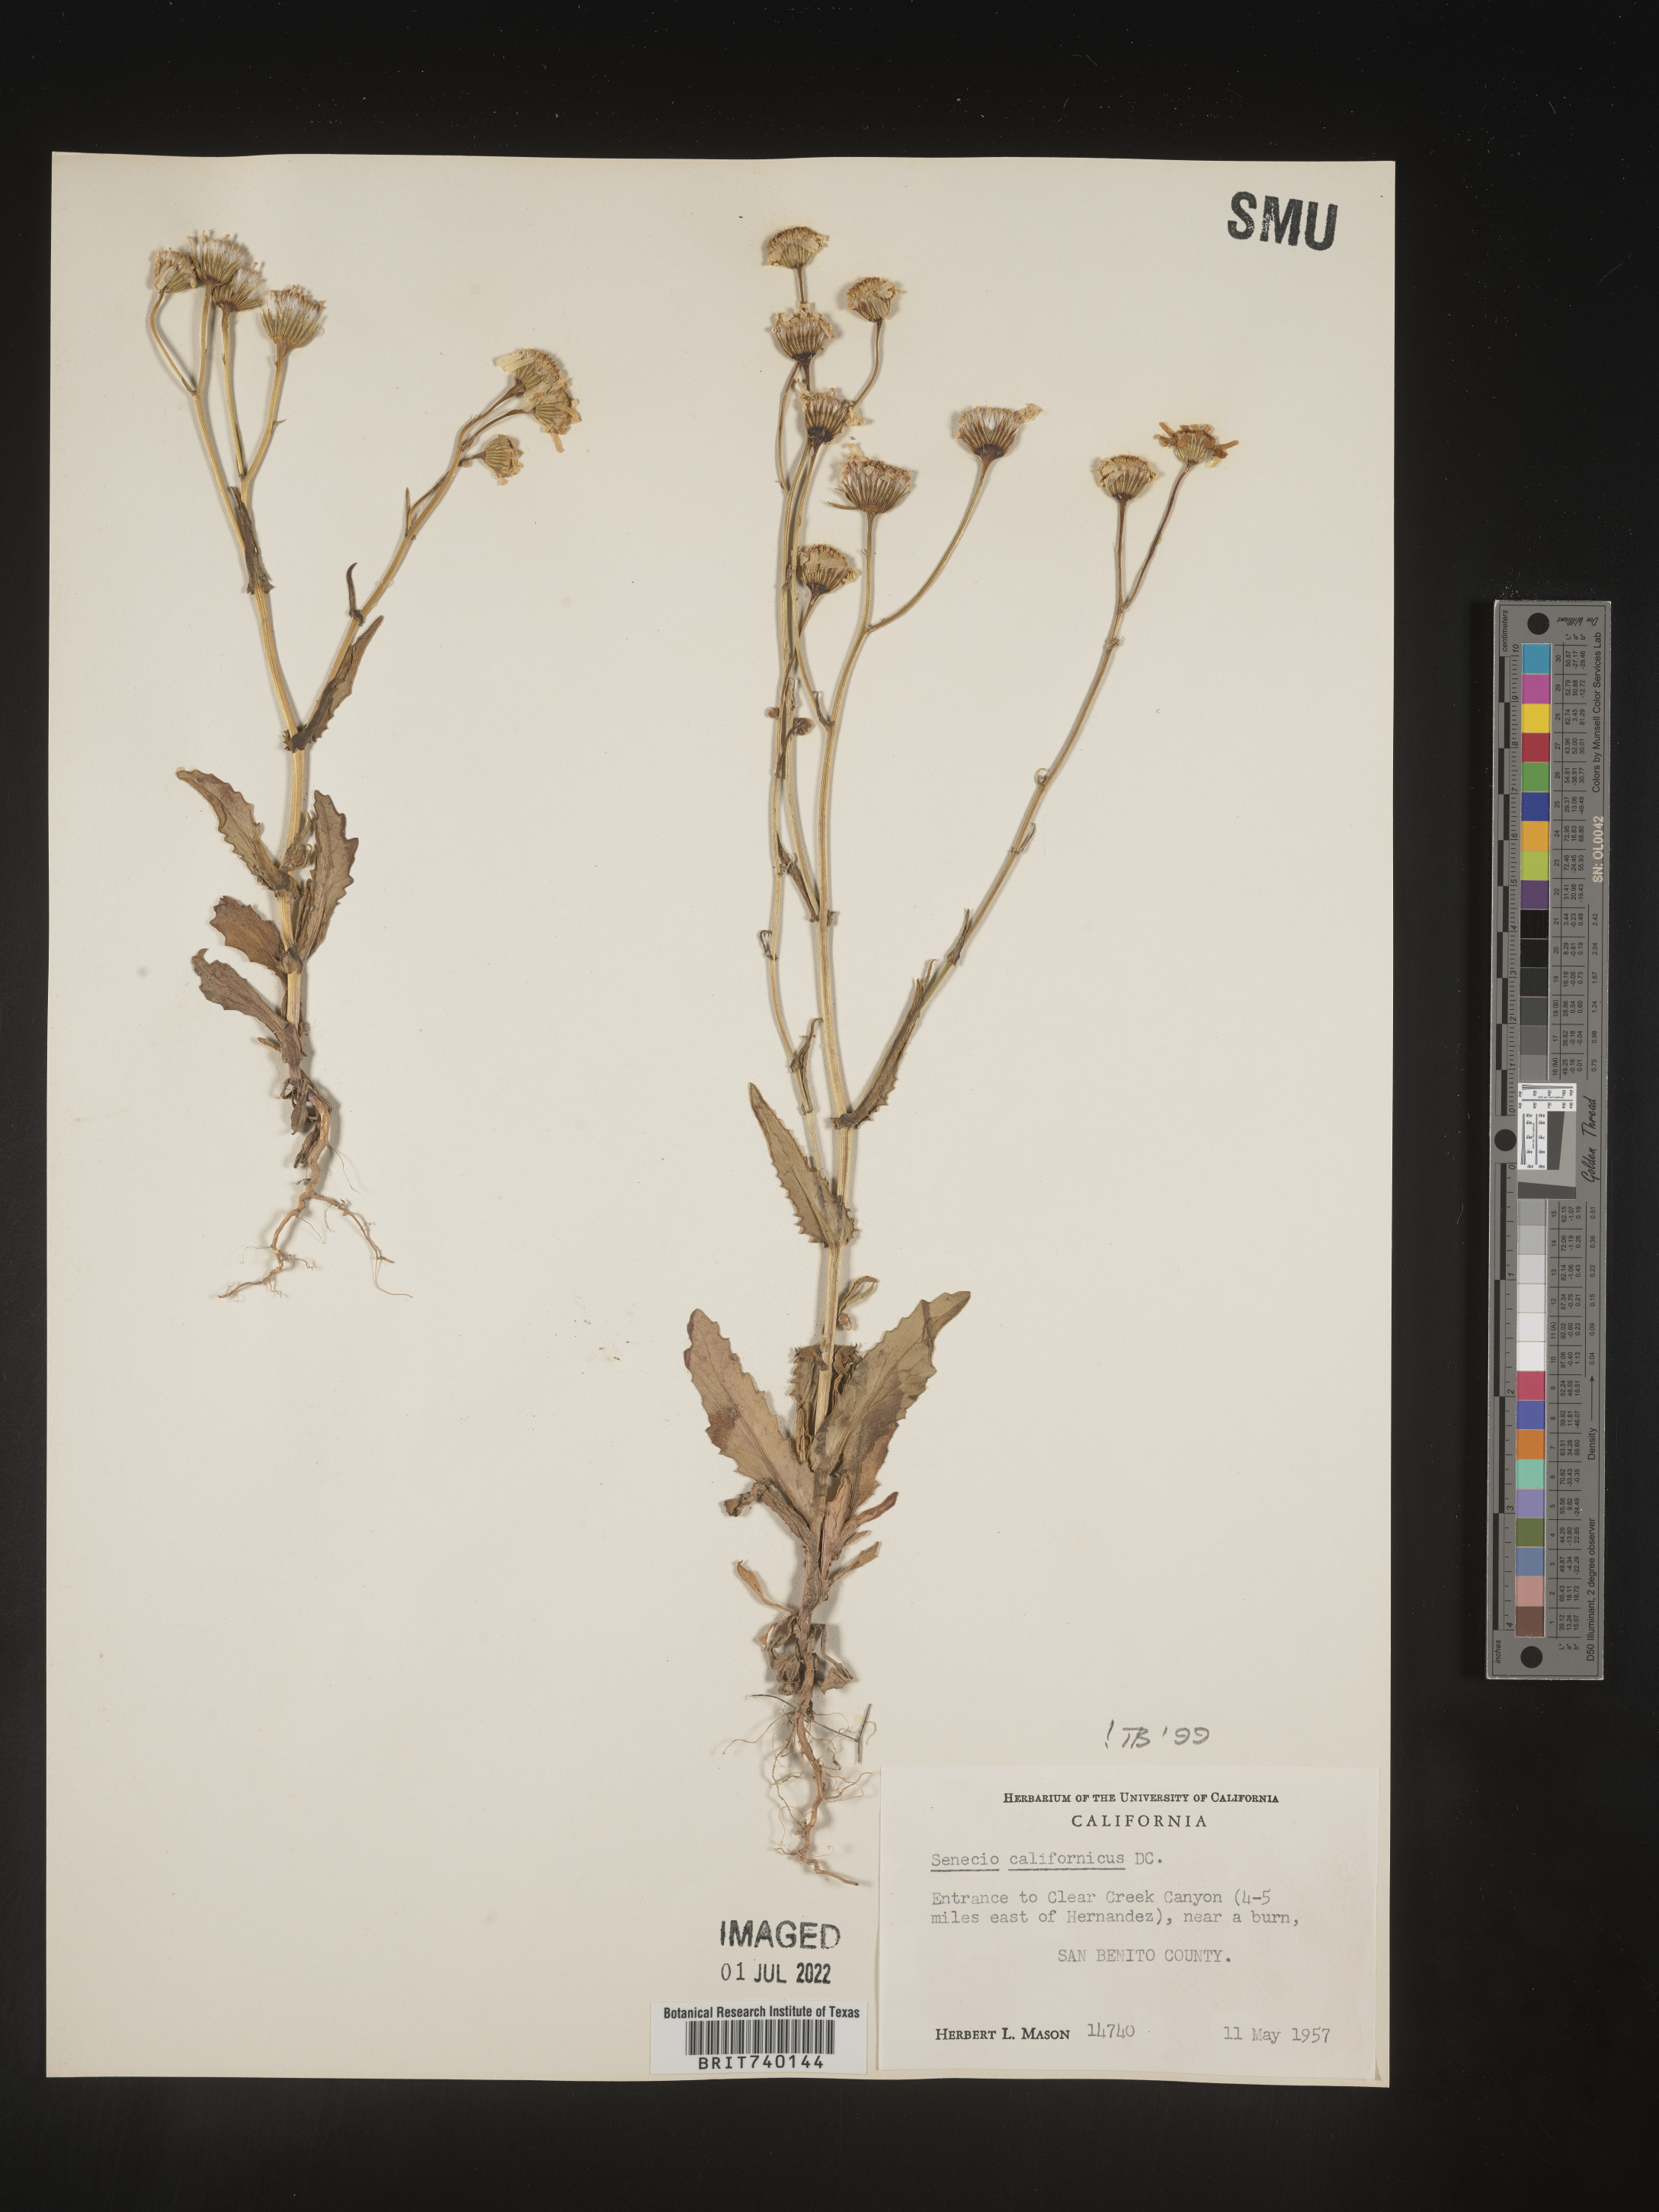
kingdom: Plantae
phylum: Tracheophyta
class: Magnoliopsida
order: Asterales
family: Asteraceae
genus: Senecio
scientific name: Senecio californicus
